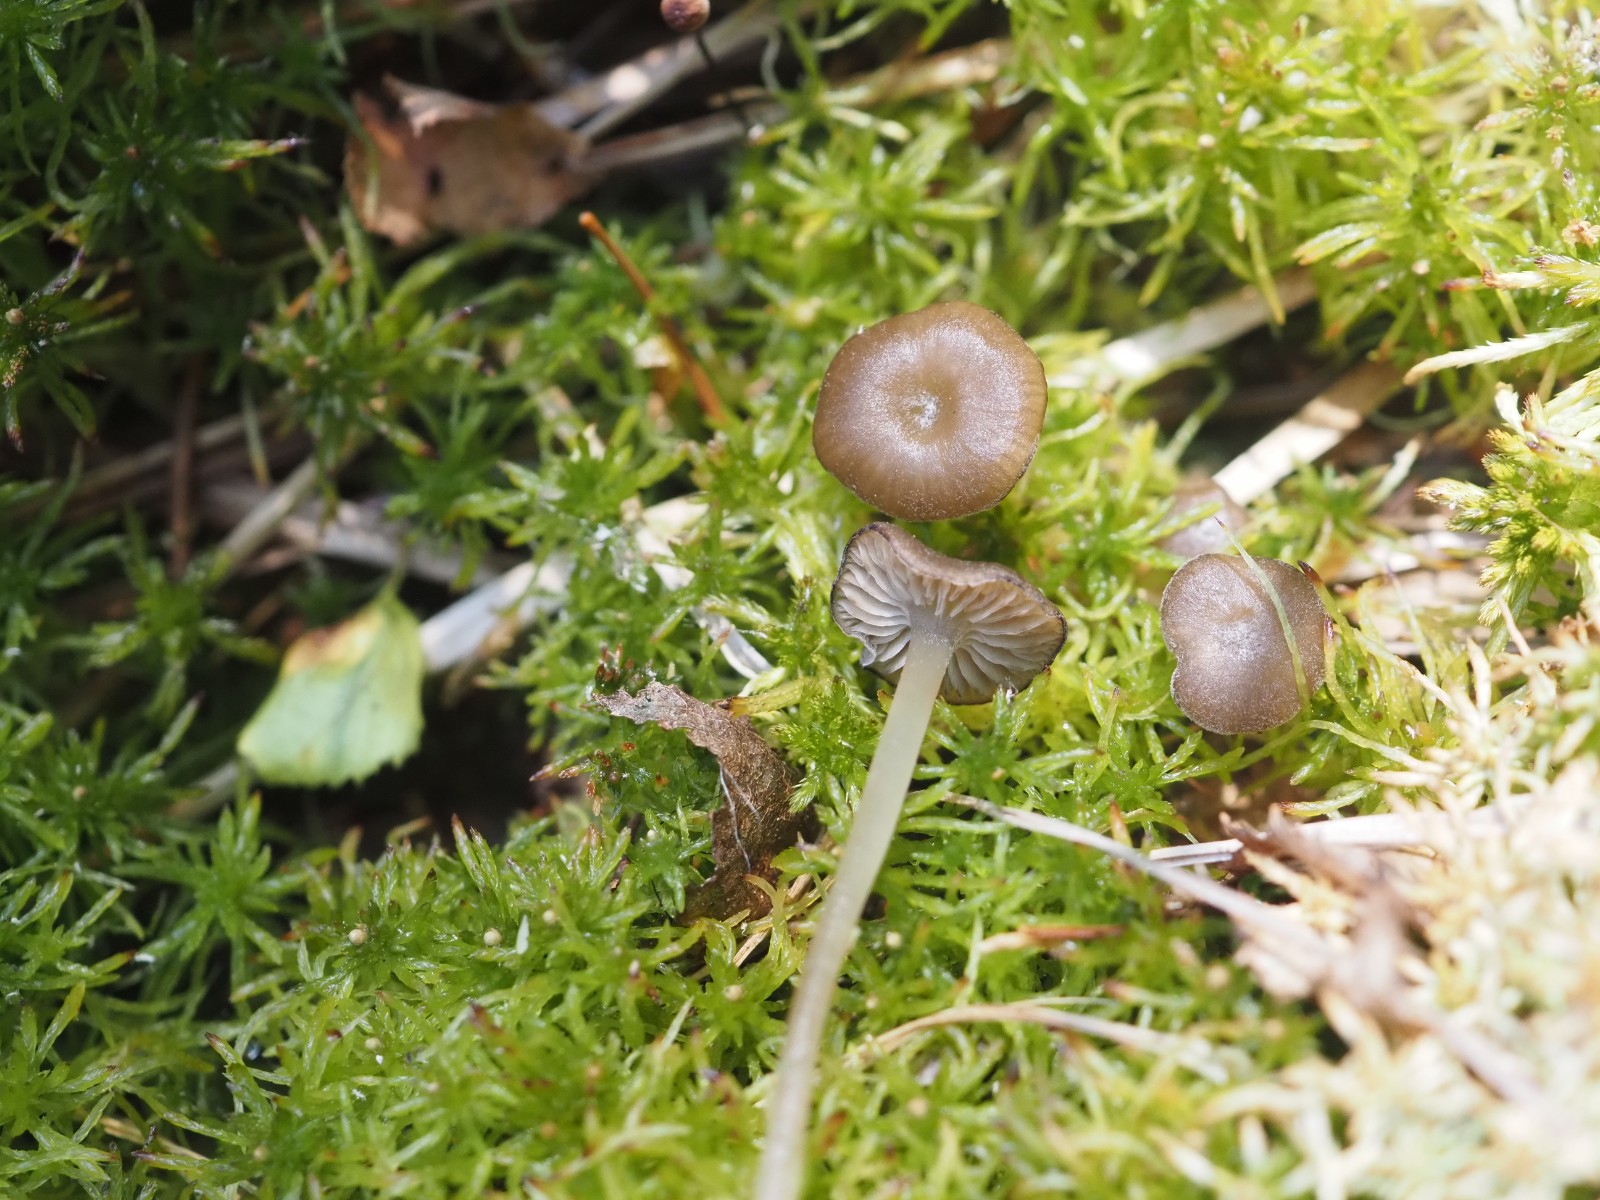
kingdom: Fungi
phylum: Basidiomycota
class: Agaricomycetes
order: Agaricales
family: Lyophyllaceae
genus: Sphagnurus
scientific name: Sphagnurus paluster
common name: tørvemos-gråblad
